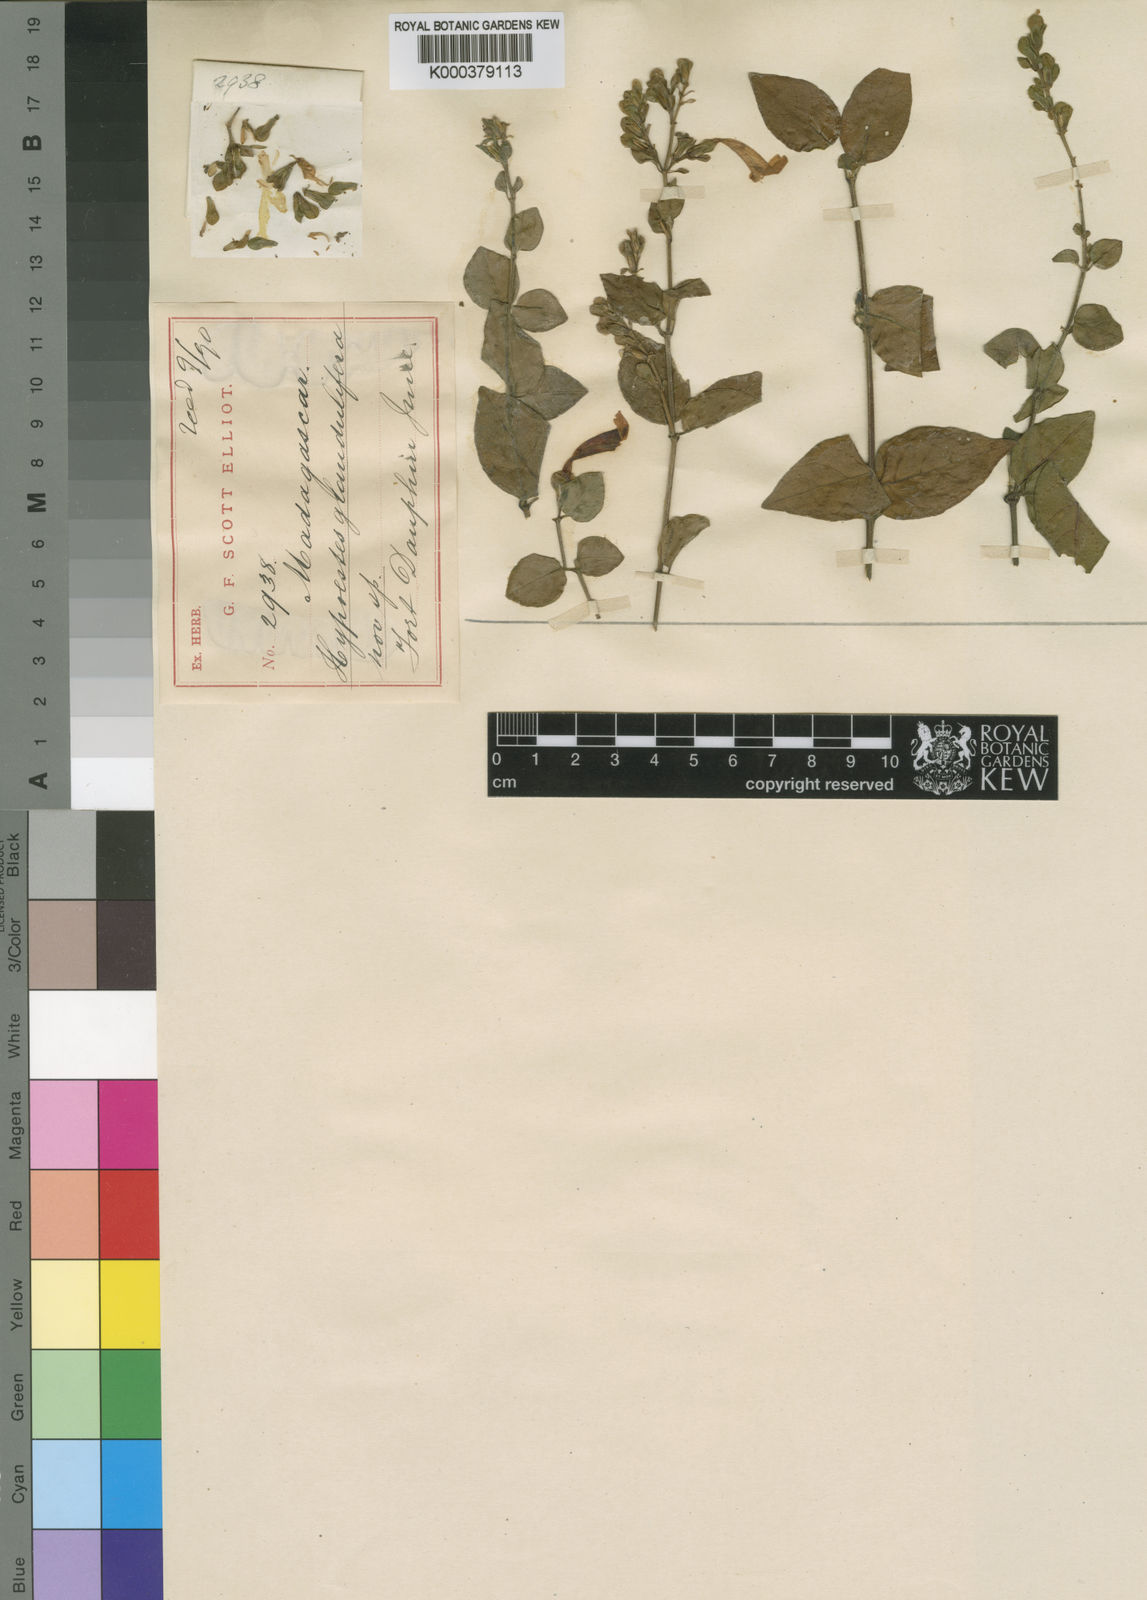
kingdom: Plantae
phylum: Tracheophyta
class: Magnoliopsida
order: Lamiales
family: Acanthaceae
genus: Hypoestes
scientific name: Hypoestes glandulifera
